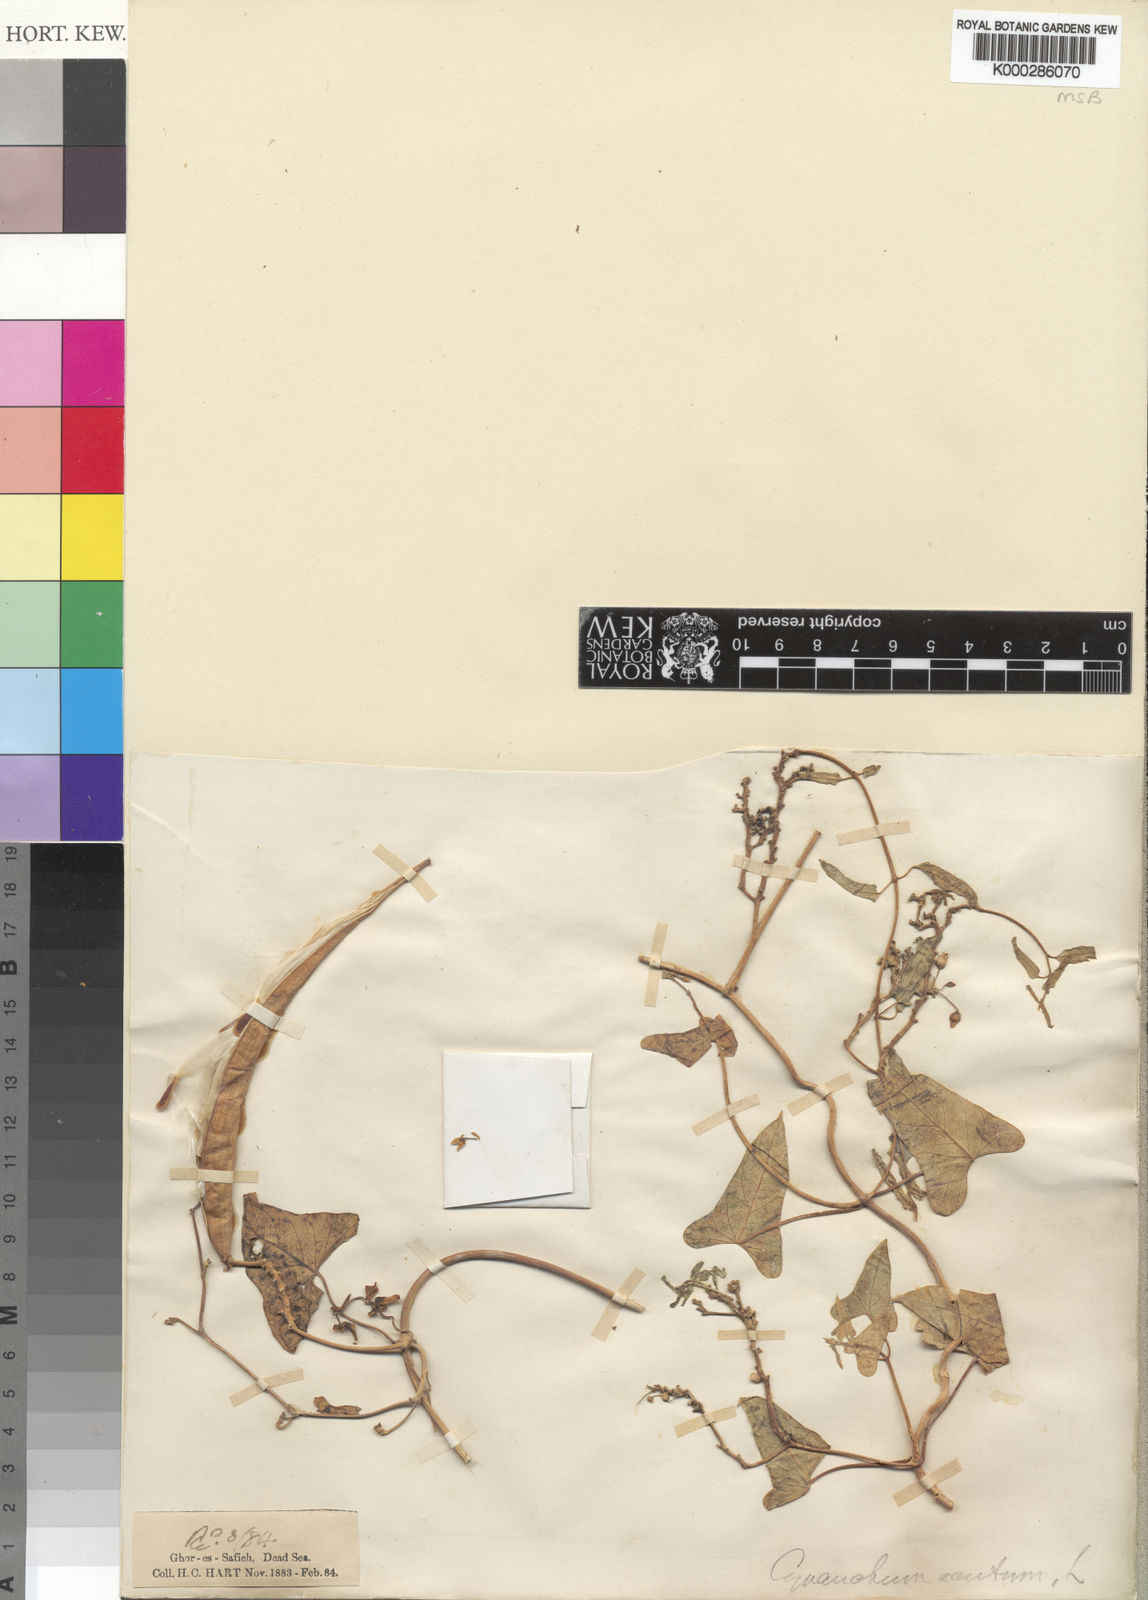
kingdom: Plantae
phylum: Tracheophyta
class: Magnoliopsida
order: Gentianales
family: Apocynaceae
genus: Cynanchum
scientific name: Cynanchum acutum
